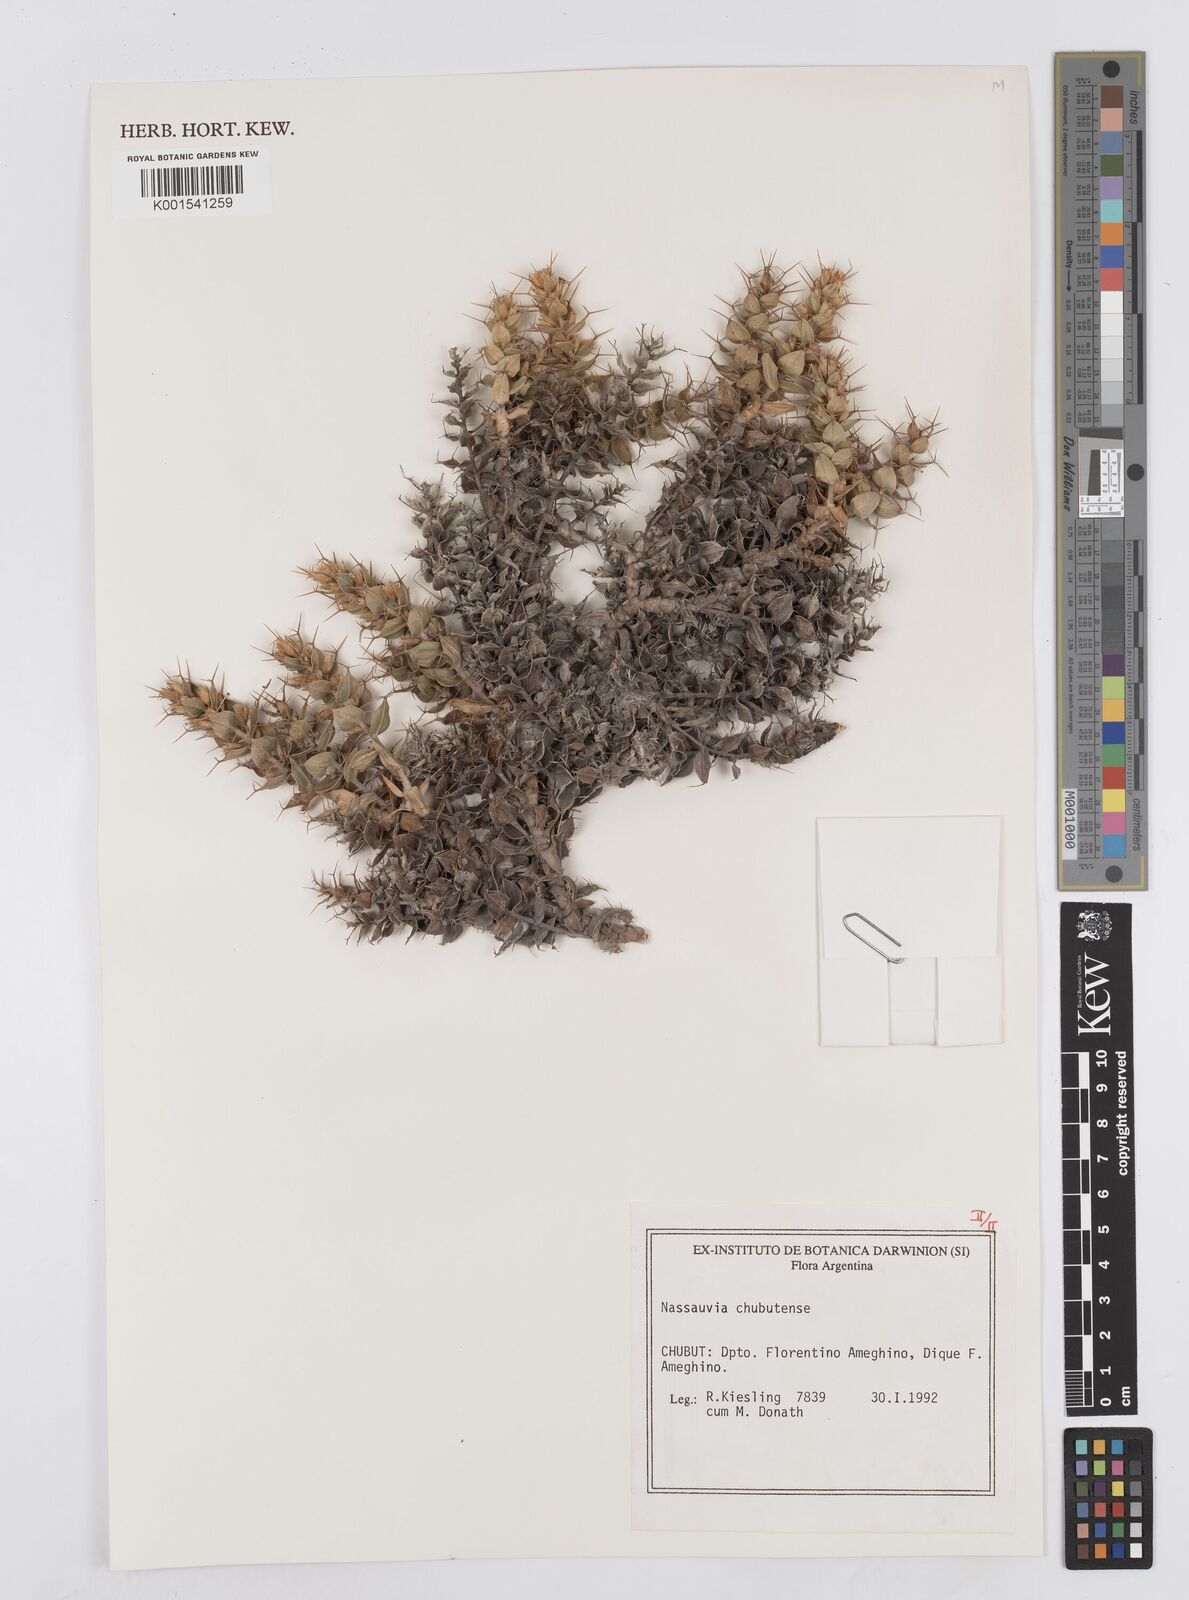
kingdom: Plantae
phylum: Tracheophyta
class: Magnoliopsida
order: Asterales
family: Asteraceae
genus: Nassauvia
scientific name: Nassauvia chubutensis
